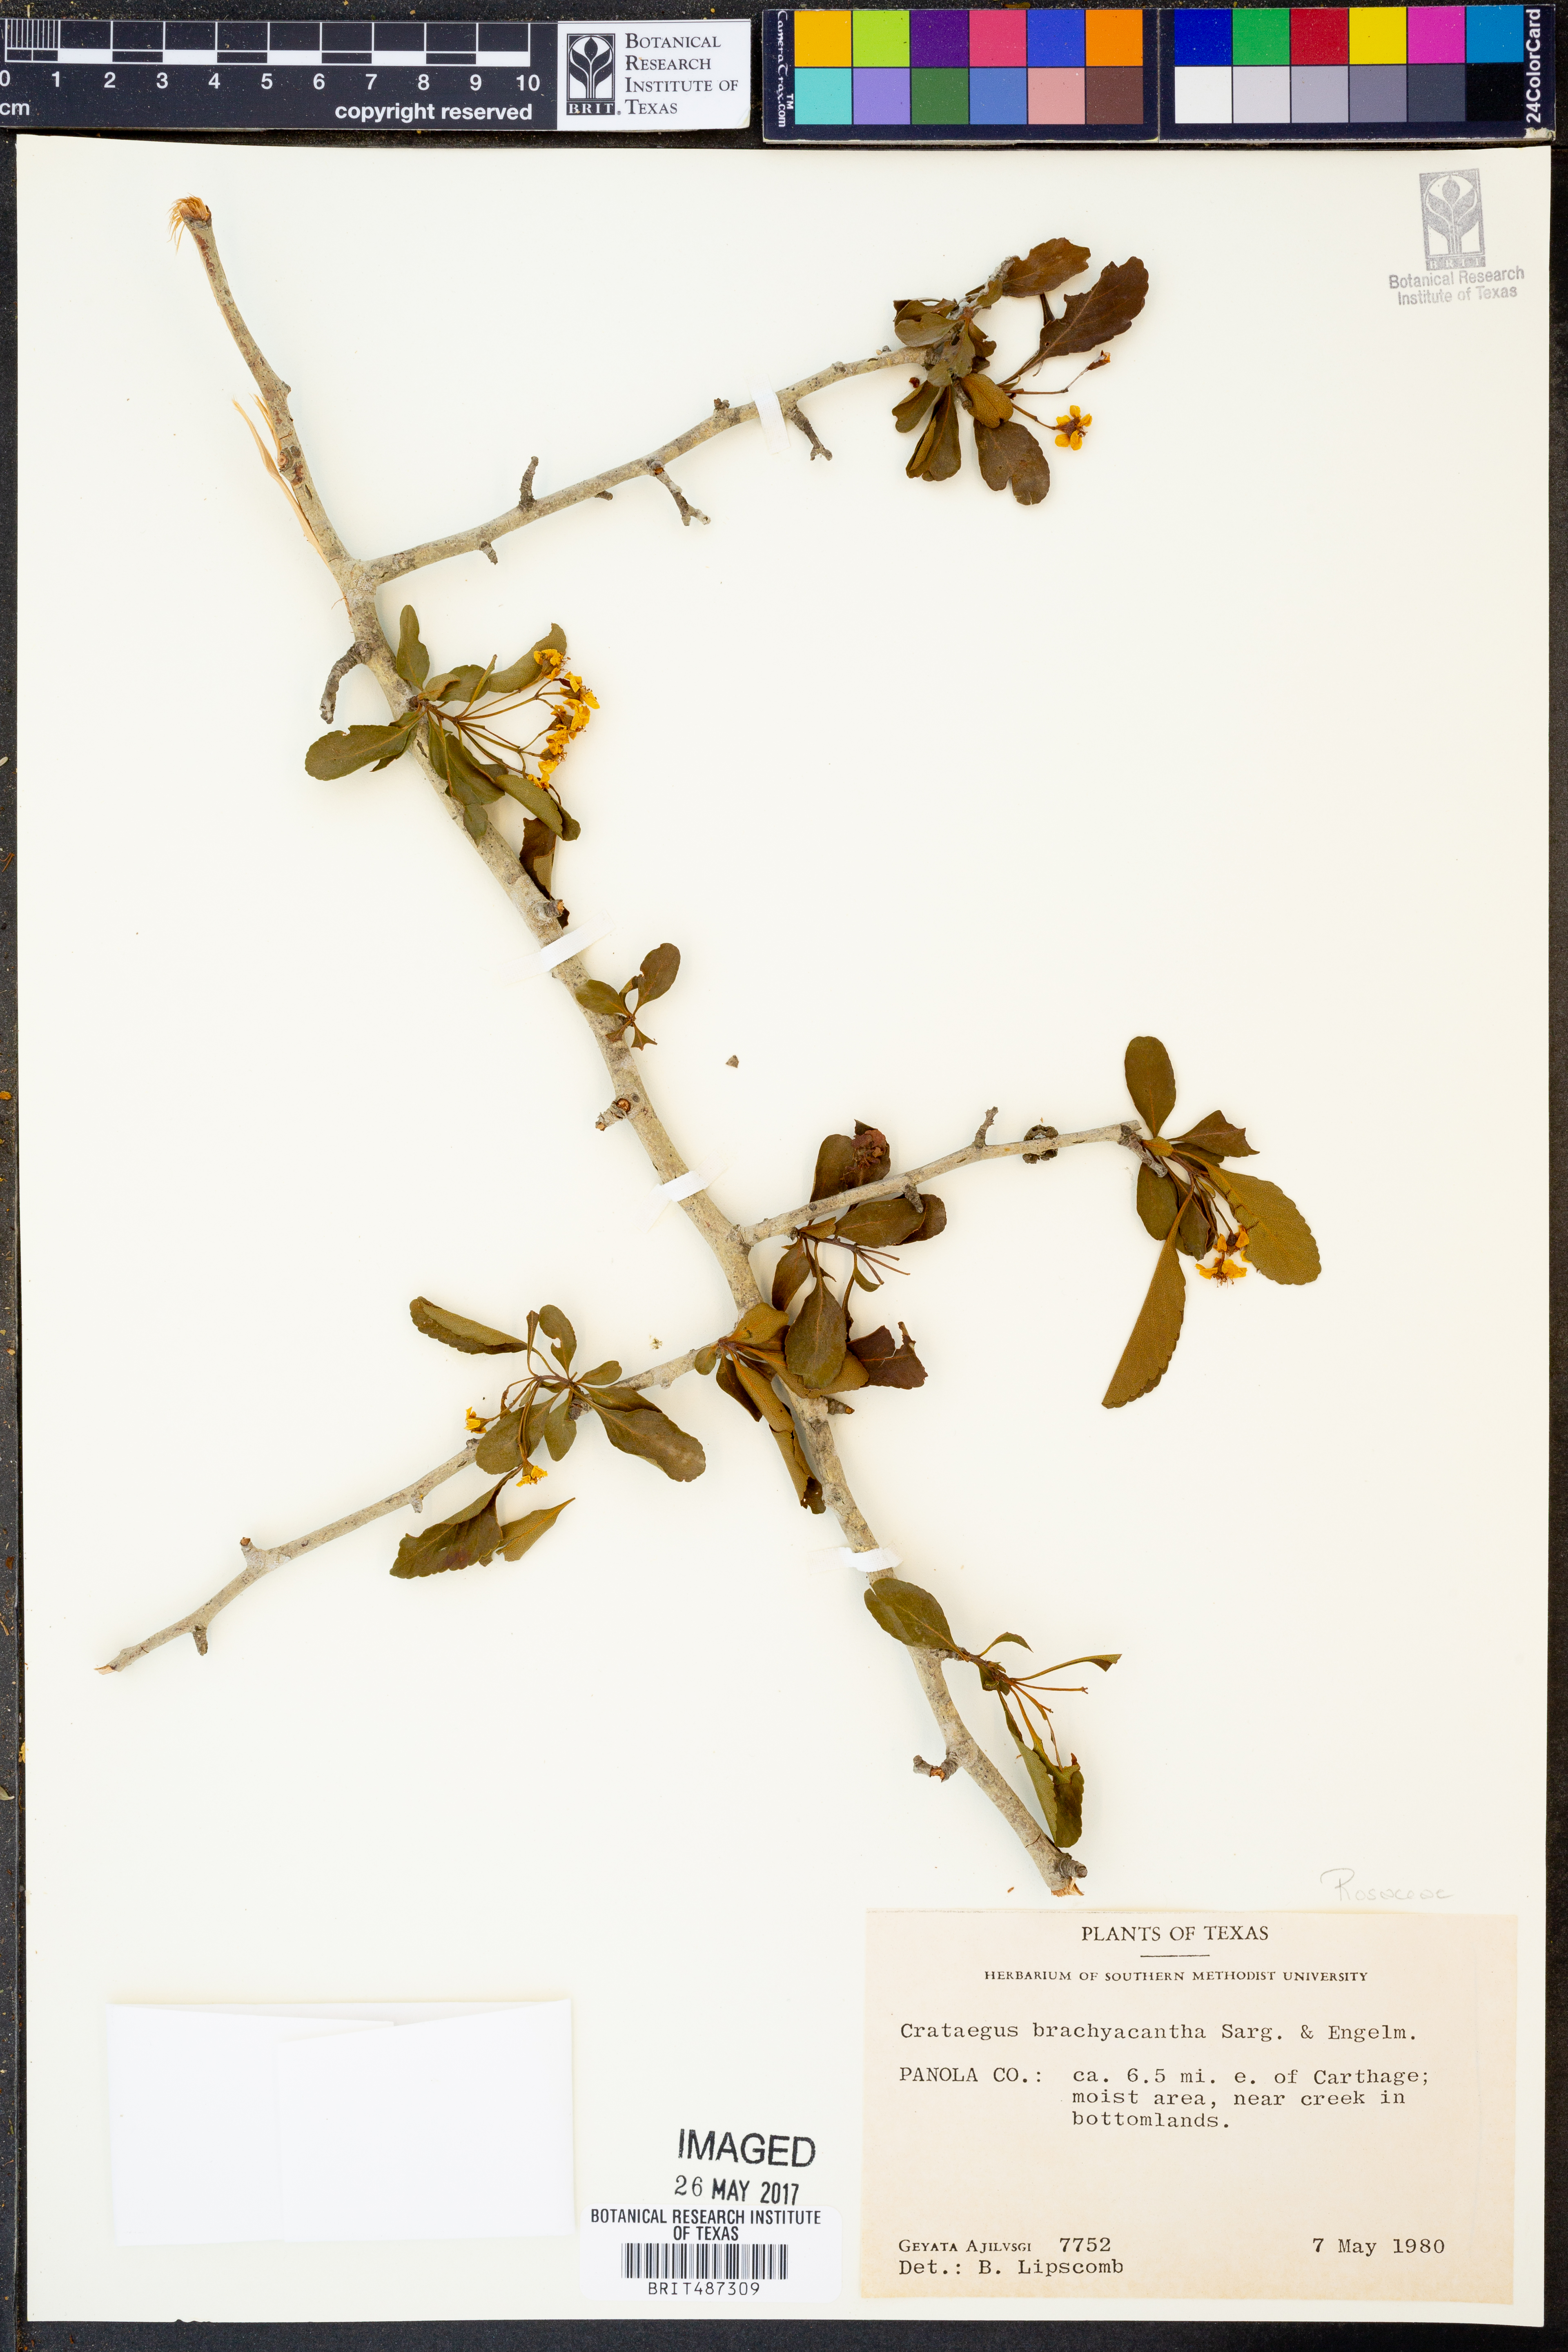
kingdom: Plantae
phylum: Tracheophyta
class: Magnoliopsida
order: Rosales
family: Rosaceae
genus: Crataegus
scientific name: Crataegus brachyacantha
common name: Blueberry-hawthorn
